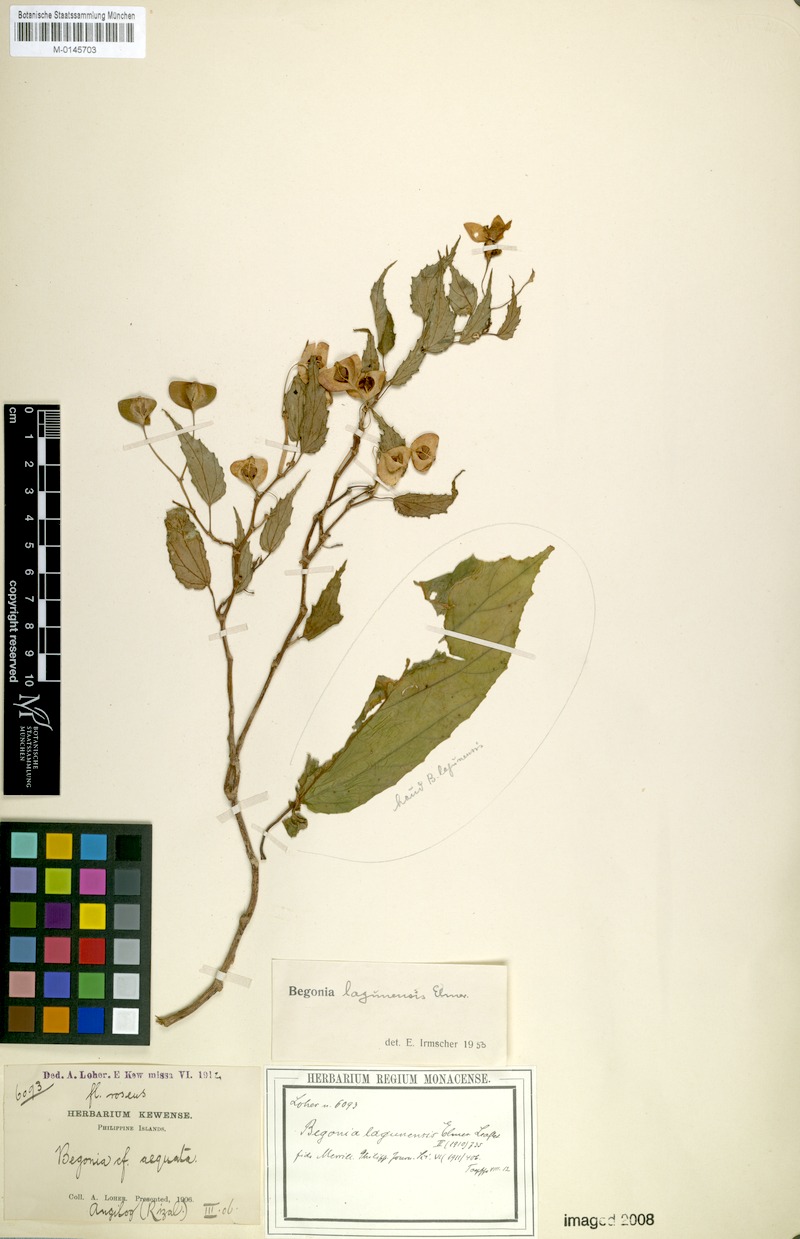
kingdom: Plantae
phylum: Tracheophyta
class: Magnoliopsida
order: Cucurbitales
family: Begoniaceae
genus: Begonia
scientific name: Begonia lagunensis
